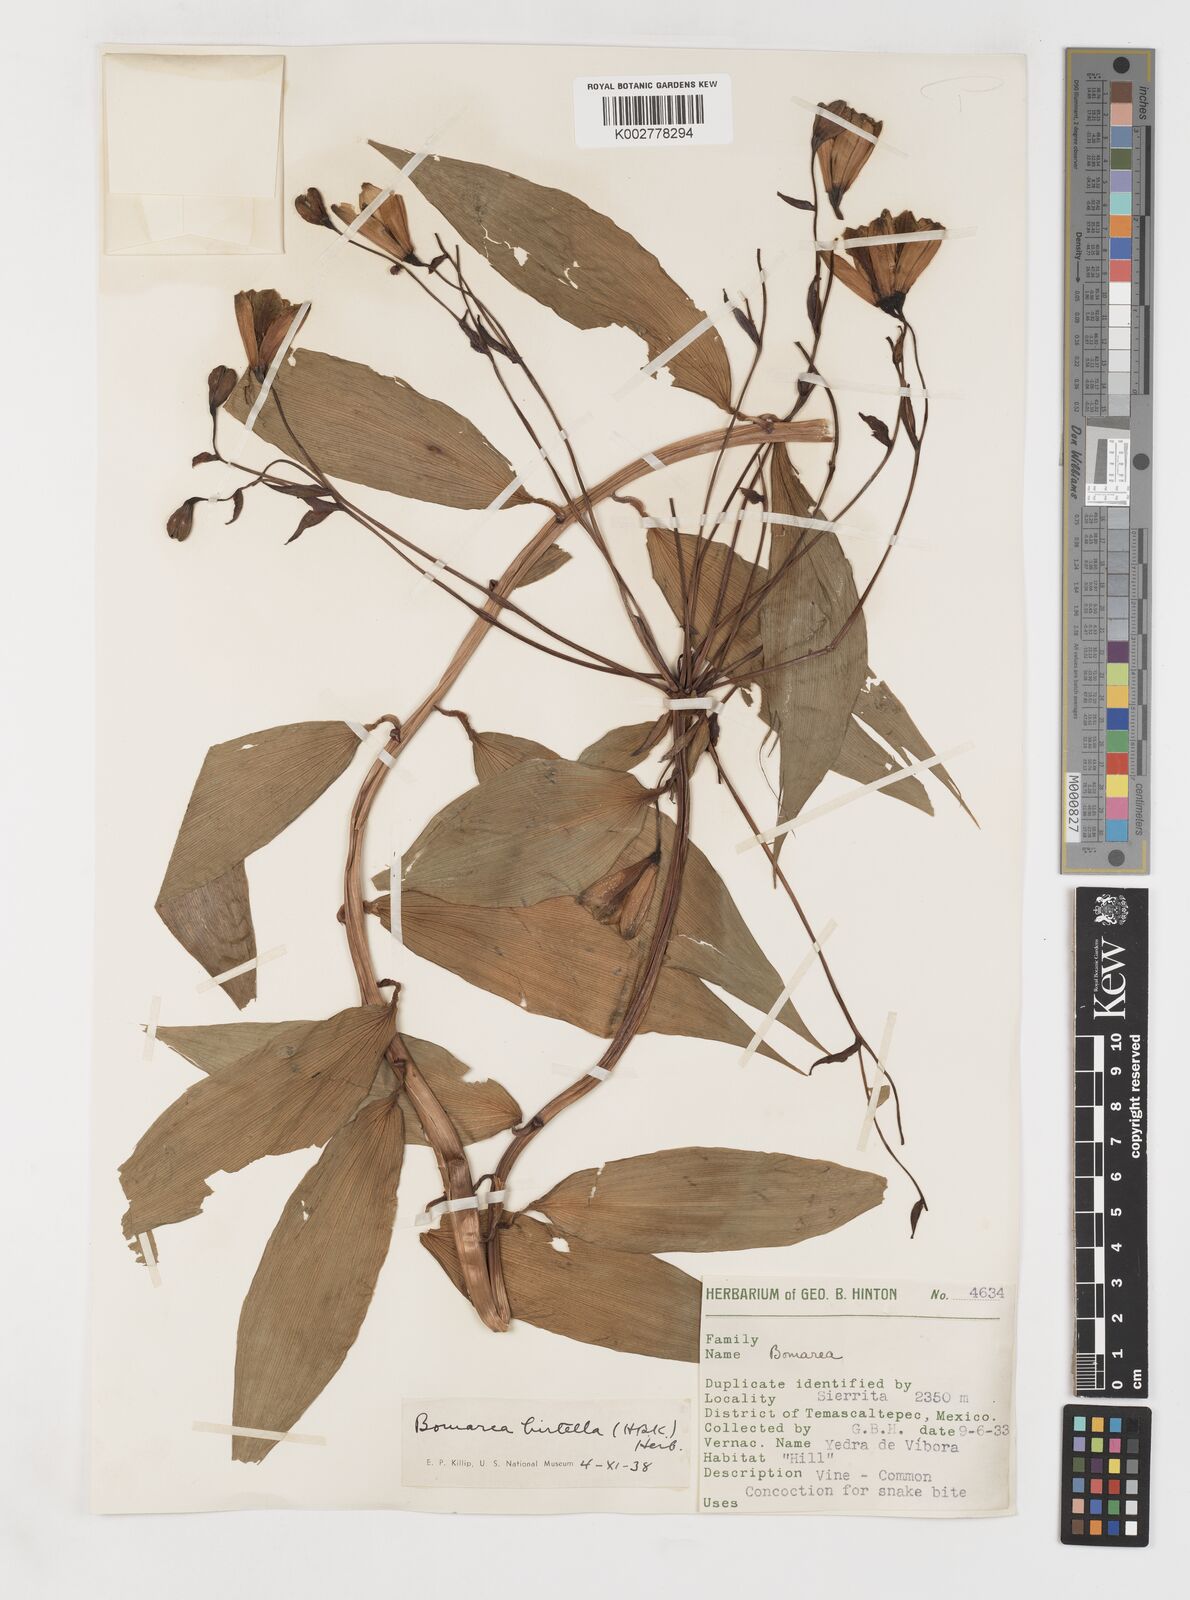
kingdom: Plantae
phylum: Tracheophyta
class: Liliopsida
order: Liliales
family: Alstroemeriaceae
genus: Bomarea
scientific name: Bomarea edulis
